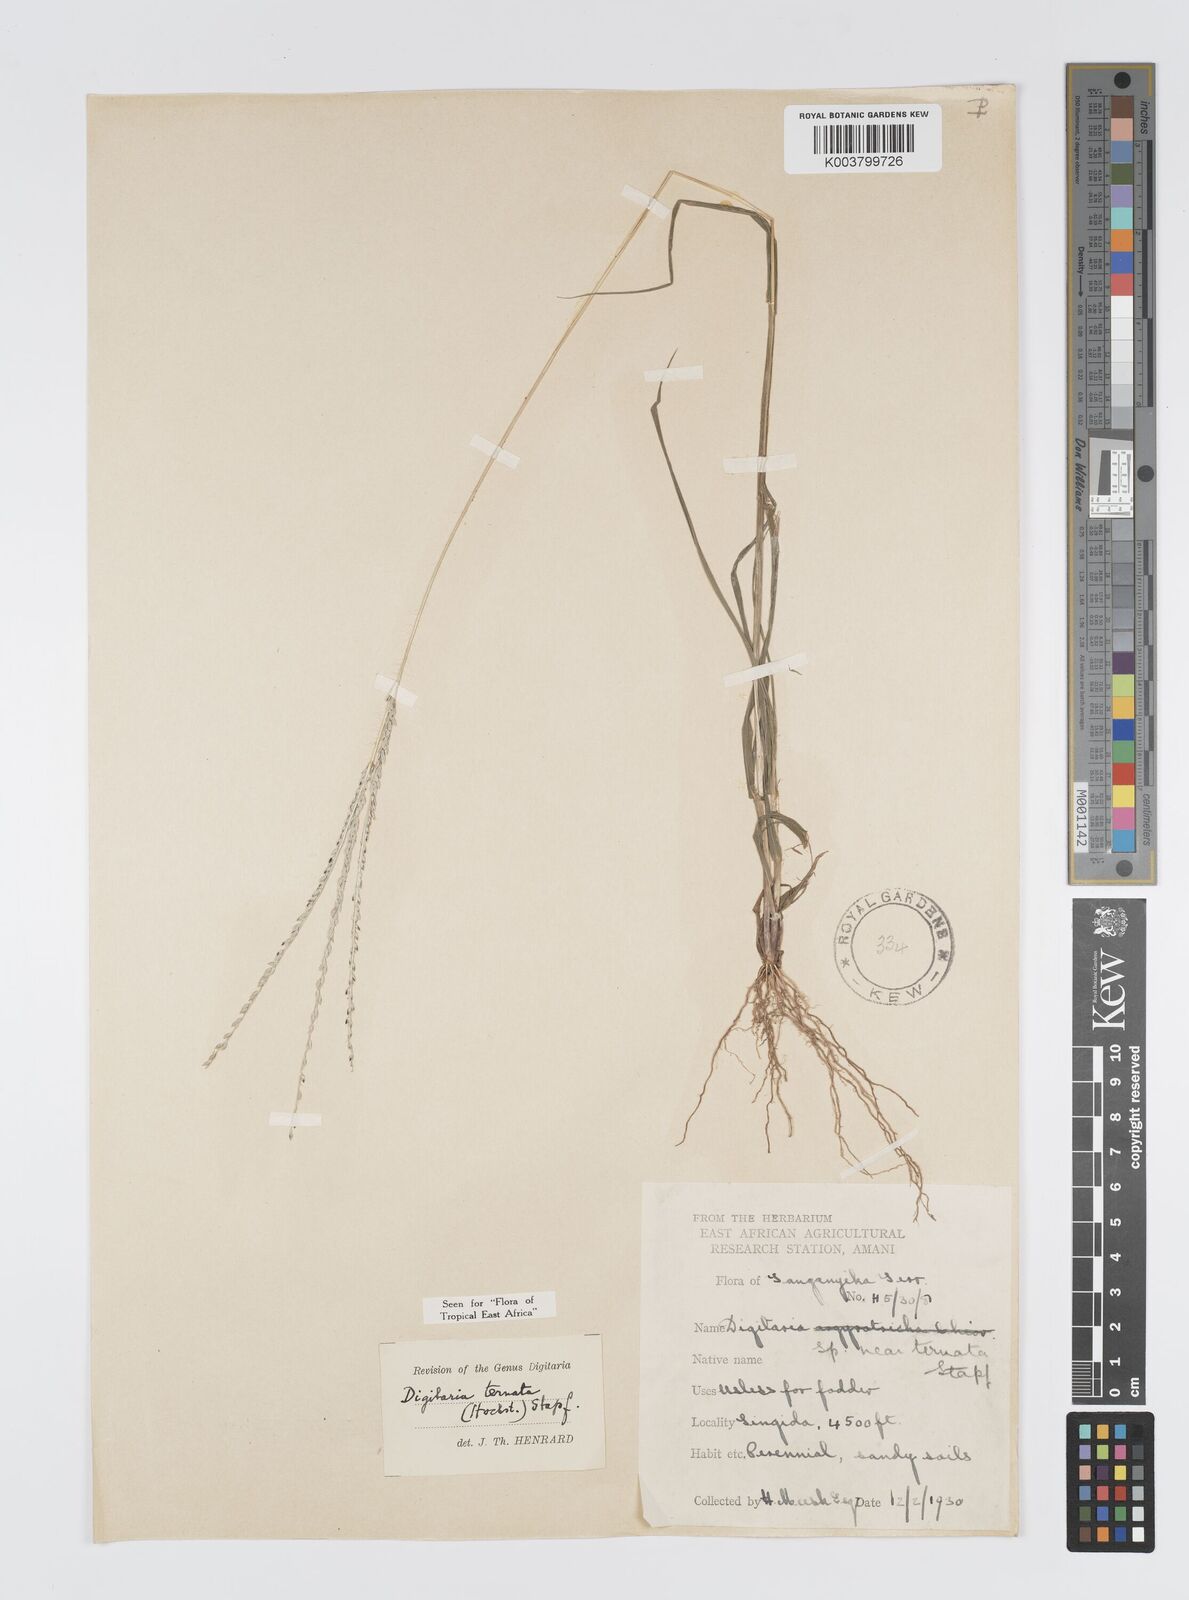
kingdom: Plantae
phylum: Tracheophyta
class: Liliopsida
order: Poales
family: Poaceae
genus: Digitaria
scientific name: Digitaria ternata
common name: Blackseed crabgrass
